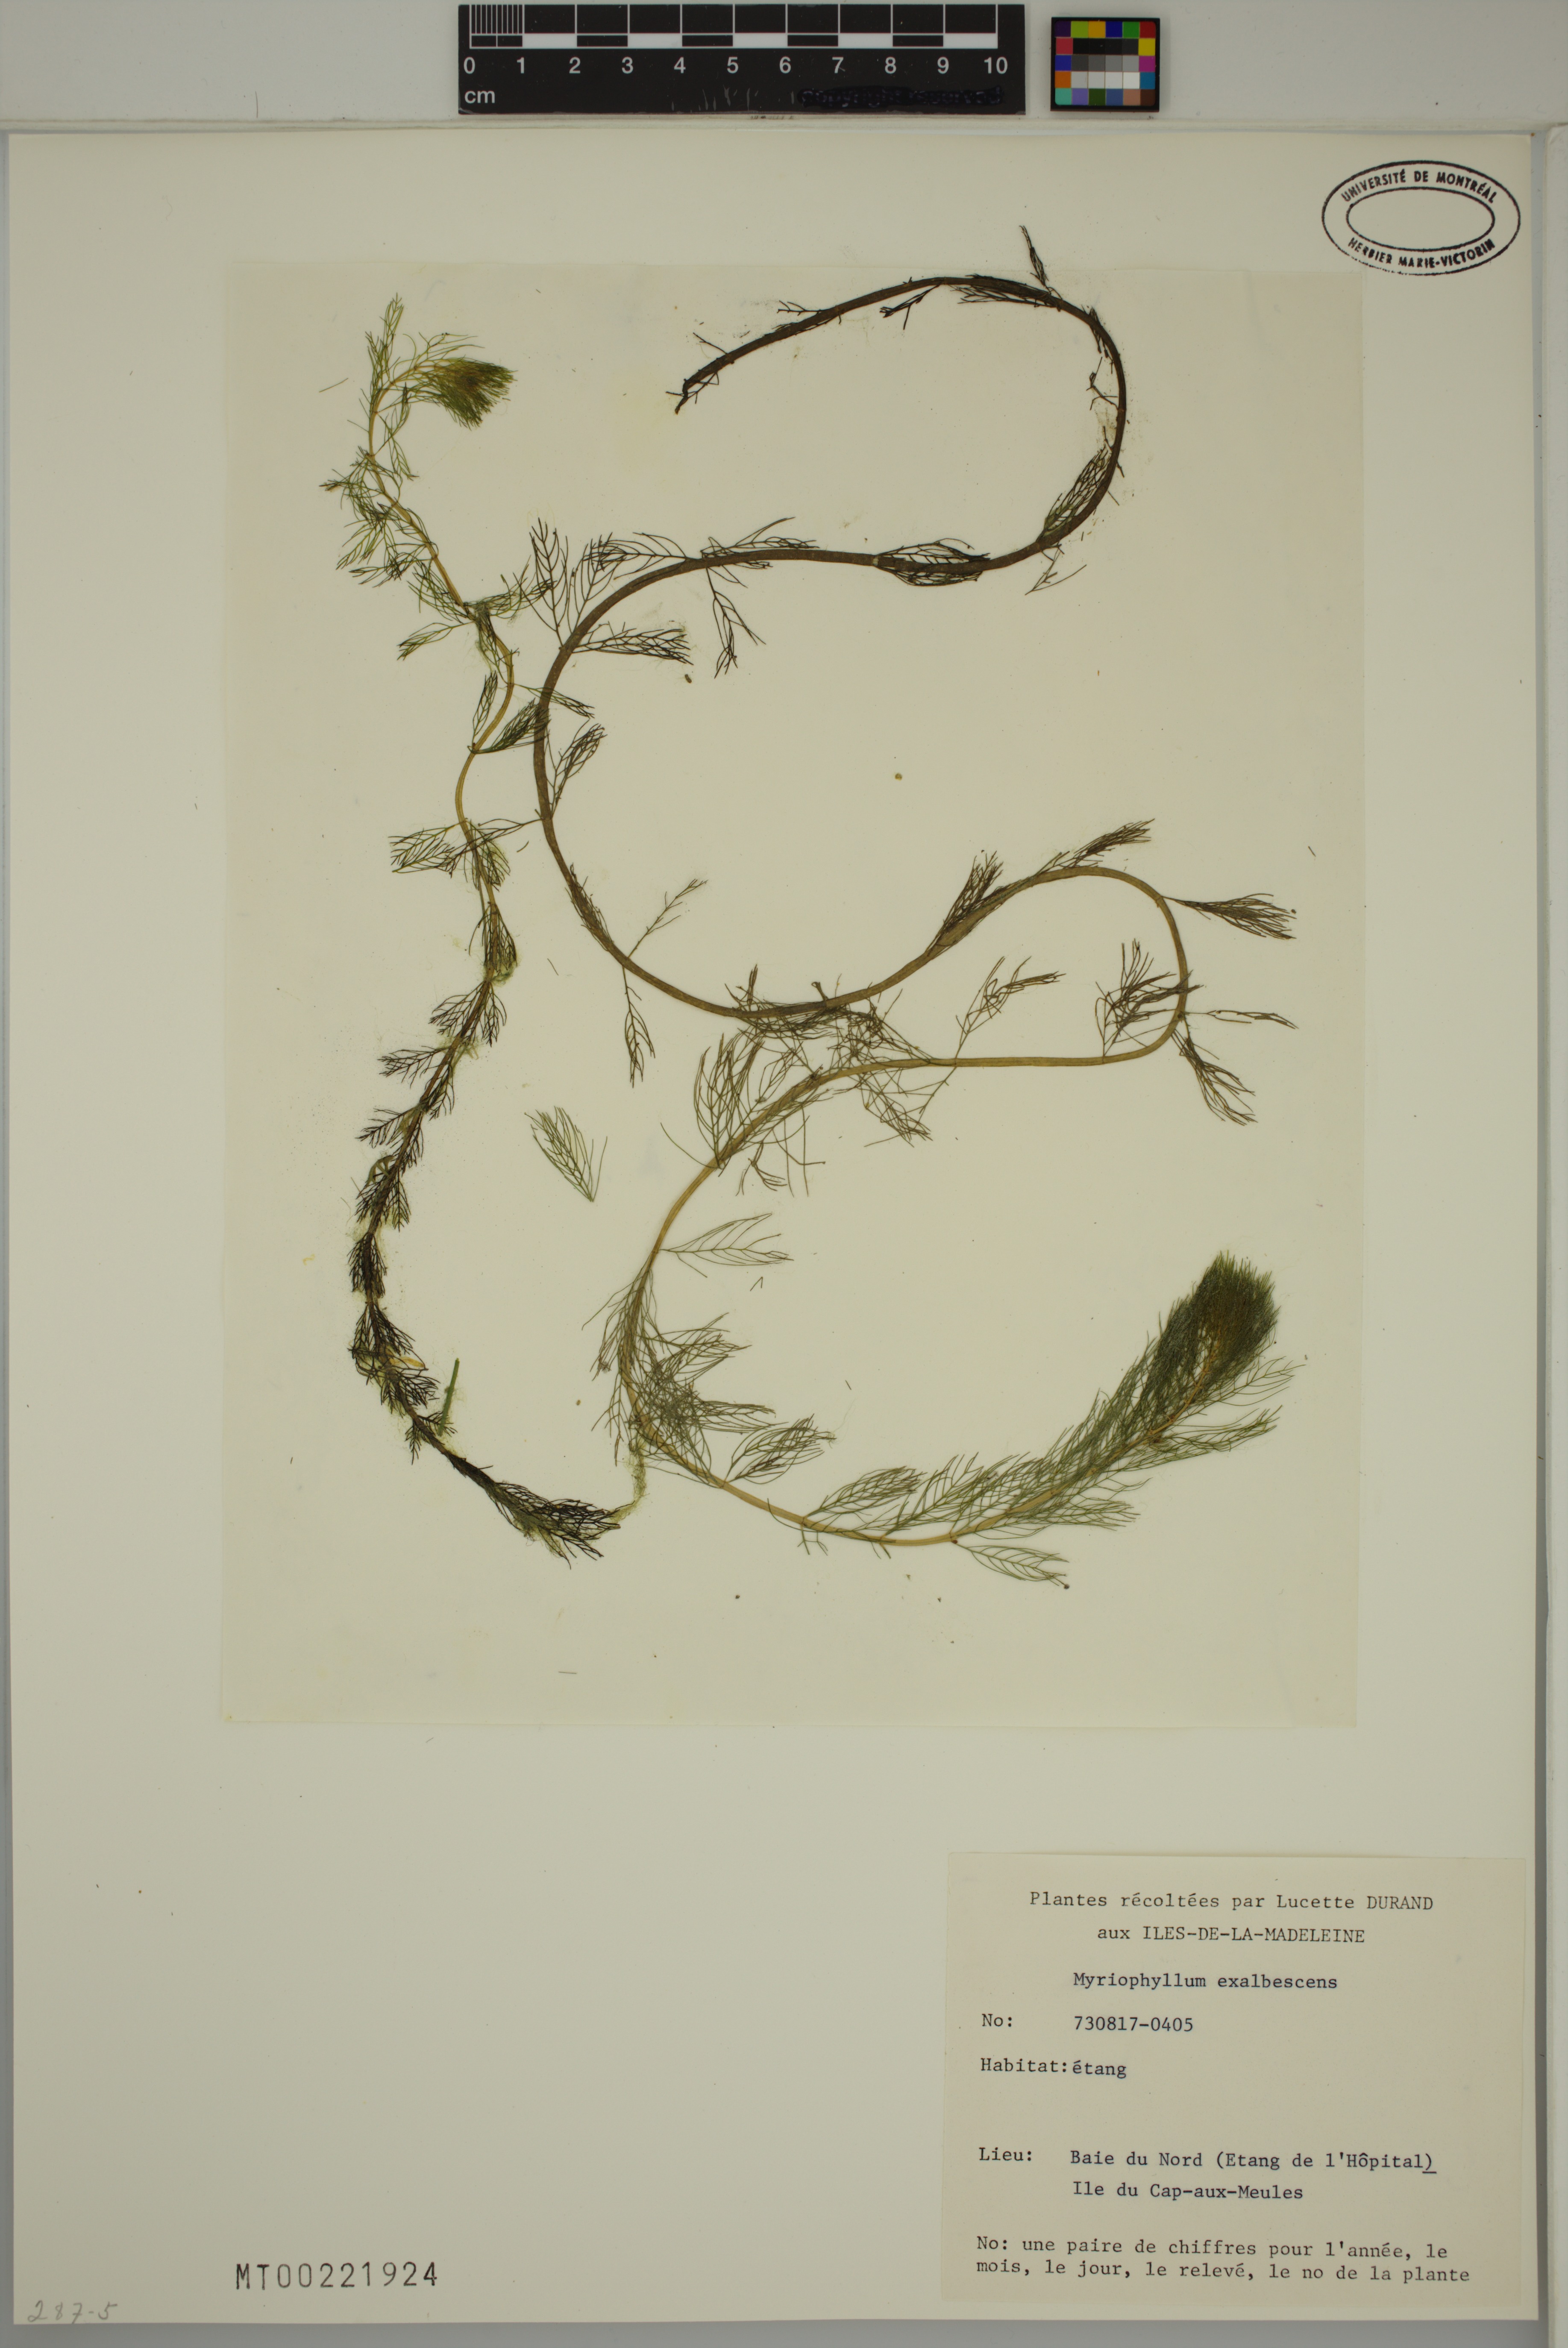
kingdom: Plantae
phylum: Tracheophyta
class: Magnoliopsida
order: Saxifragales
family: Haloragaceae
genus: Myriophyllum
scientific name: Myriophyllum sibiricum
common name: Siberian water-milfoil
